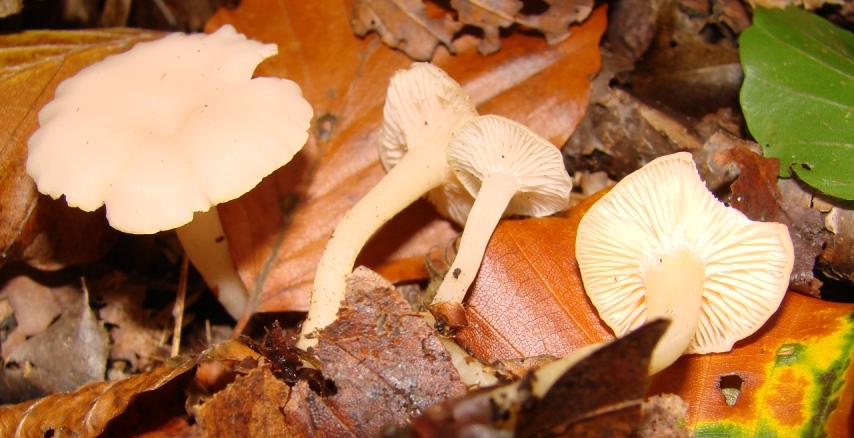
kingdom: Fungi
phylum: Basidiomycota
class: Agaricomycetes
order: Agaricales
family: Tricholomataceae
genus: Leucocybe
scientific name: Leucocybe houghtonii
